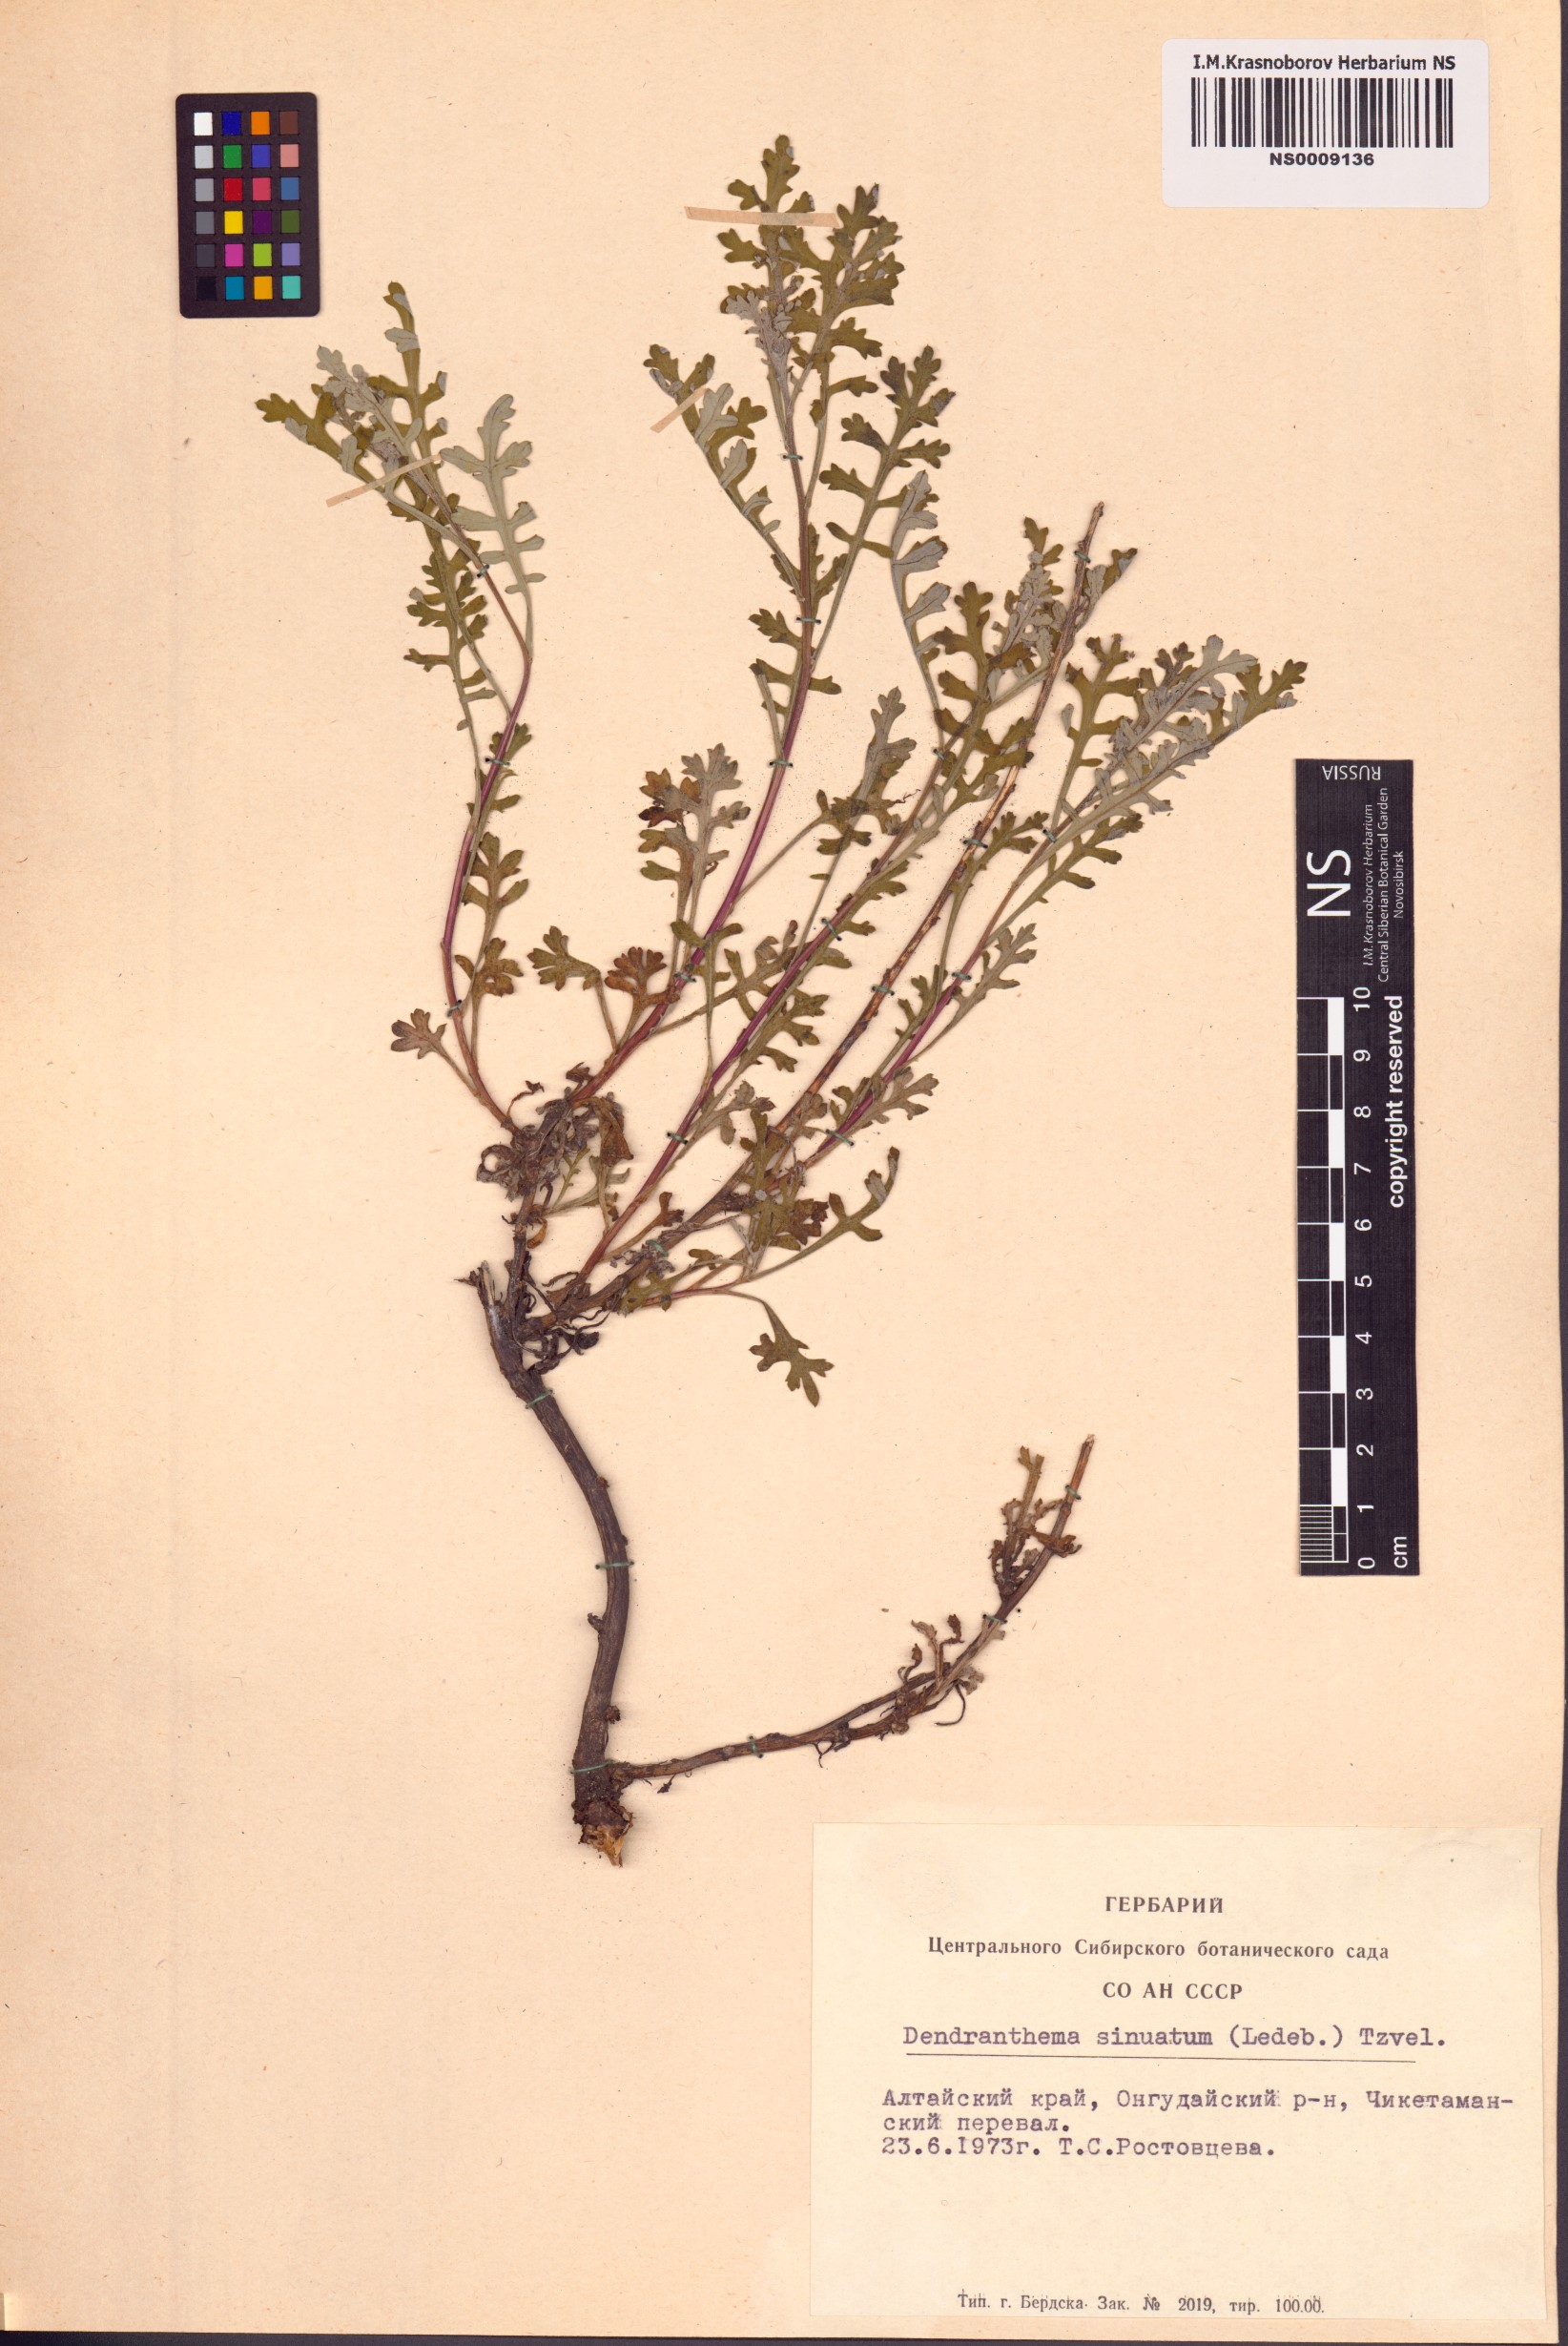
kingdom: Plantae
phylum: Tracheophyta
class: Magnoliopsida
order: Asterales
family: Asteraceae
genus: Chrysanthemum
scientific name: Chrysanthemum sinuatum
